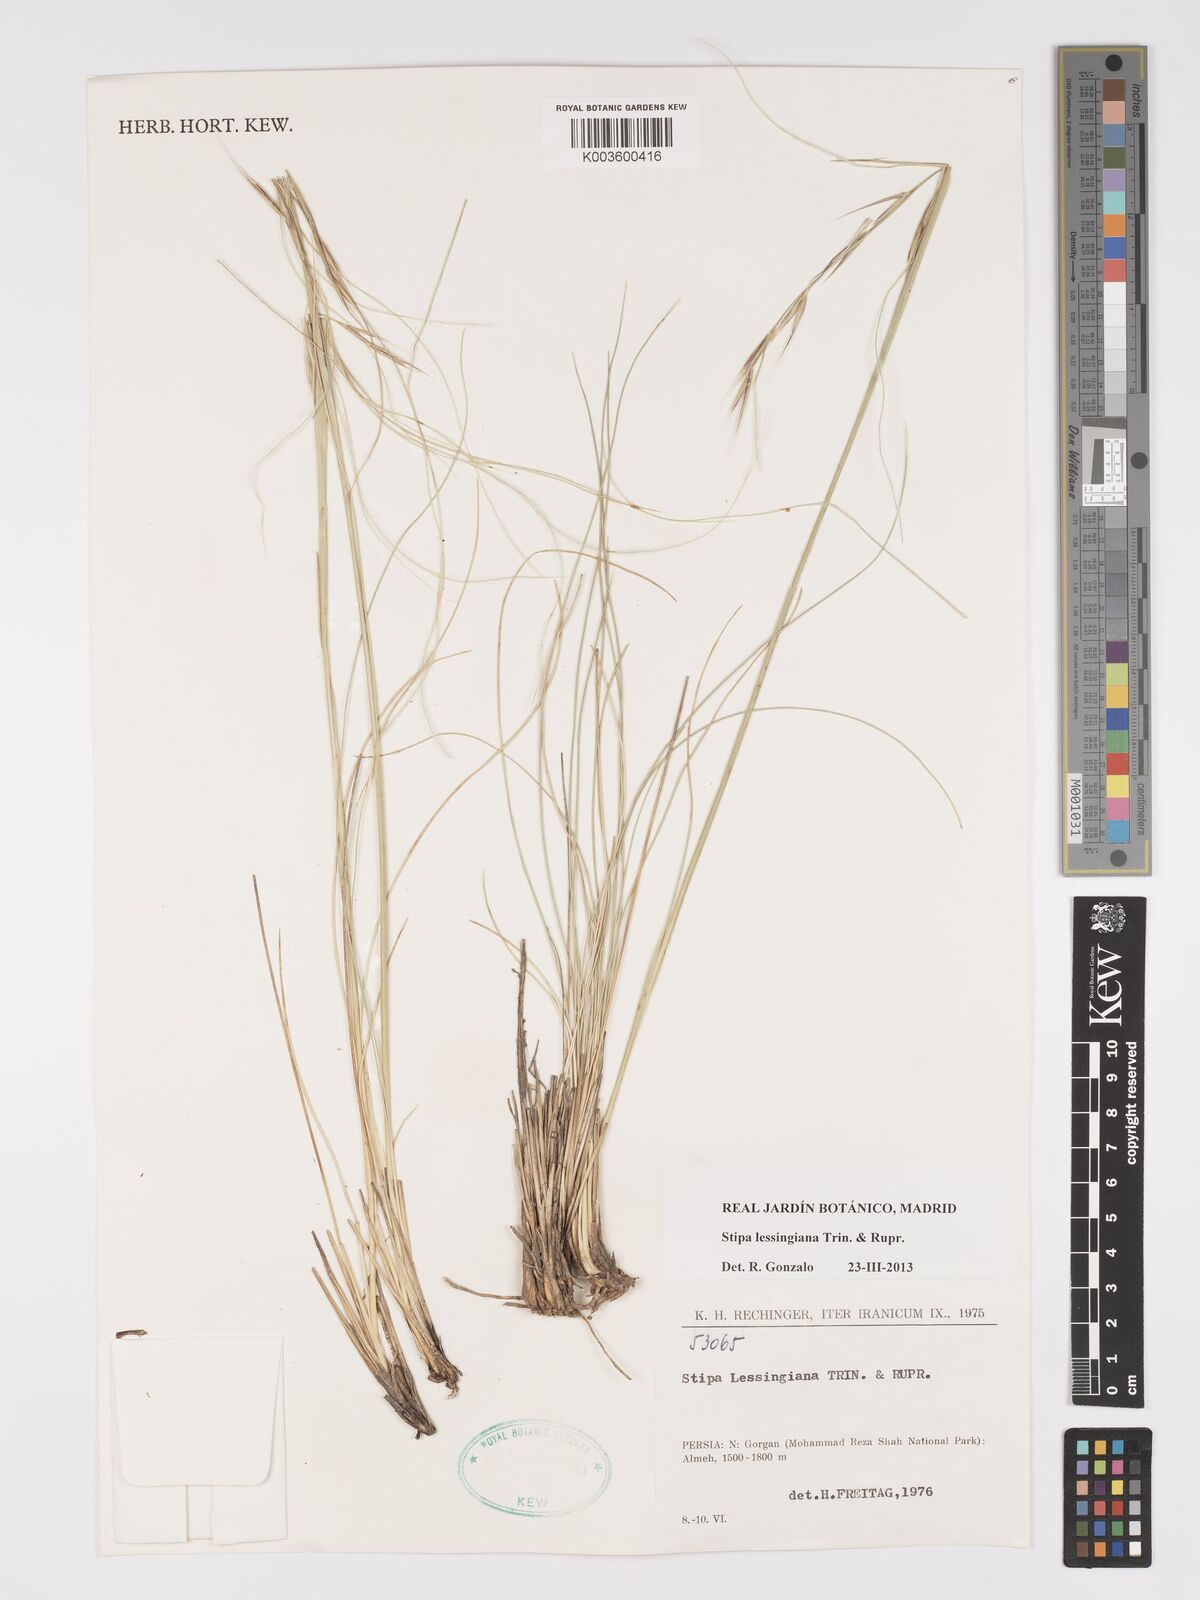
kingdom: Plantae
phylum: Tracheophyta
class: Liliopsida
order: Poales
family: Poaceae
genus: Stipa
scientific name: Stipa lessingiana
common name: Needle grass
